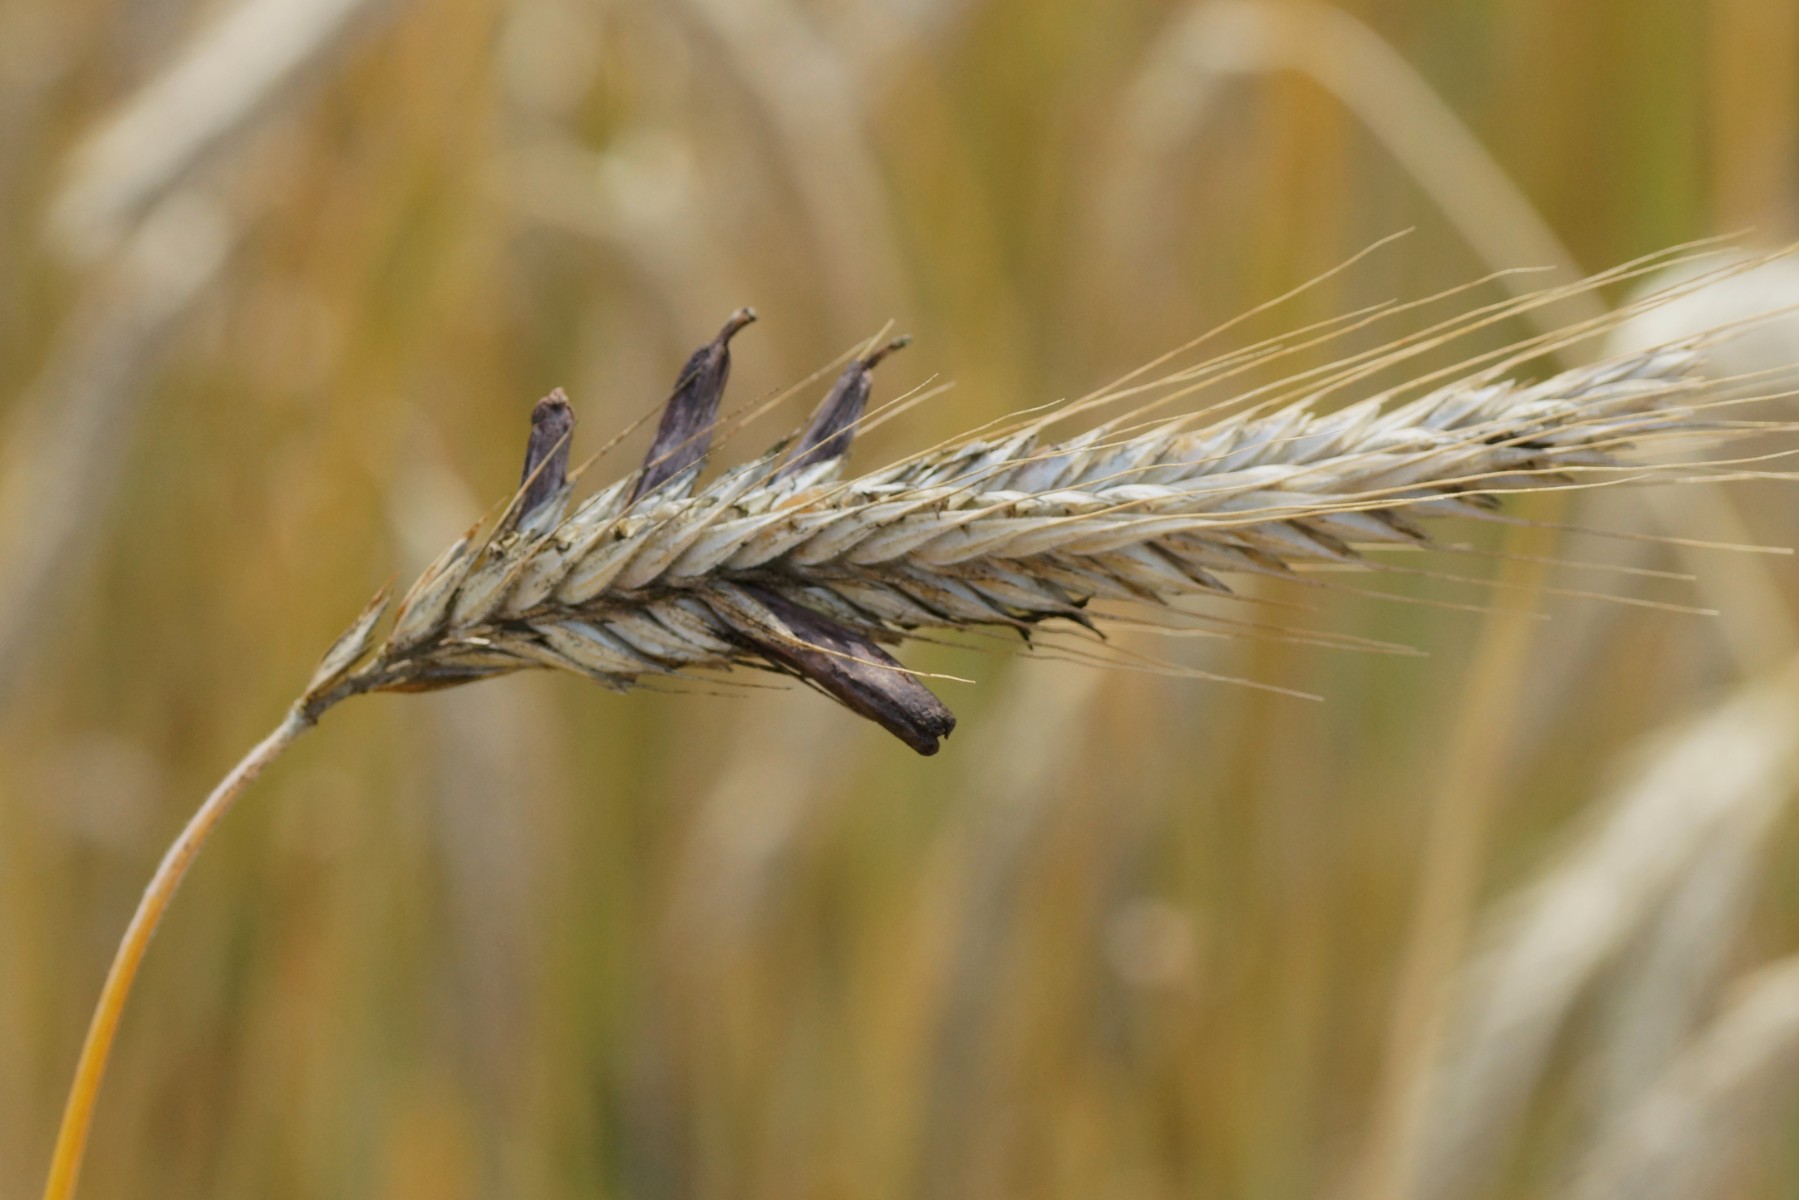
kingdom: Fungi
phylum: Ascomycota
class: Sordariomycetes
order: Hypocreales
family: Clavicipitaceae
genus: Claviceps
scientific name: Claviceps purpurea
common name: almindelig meldrøjer
